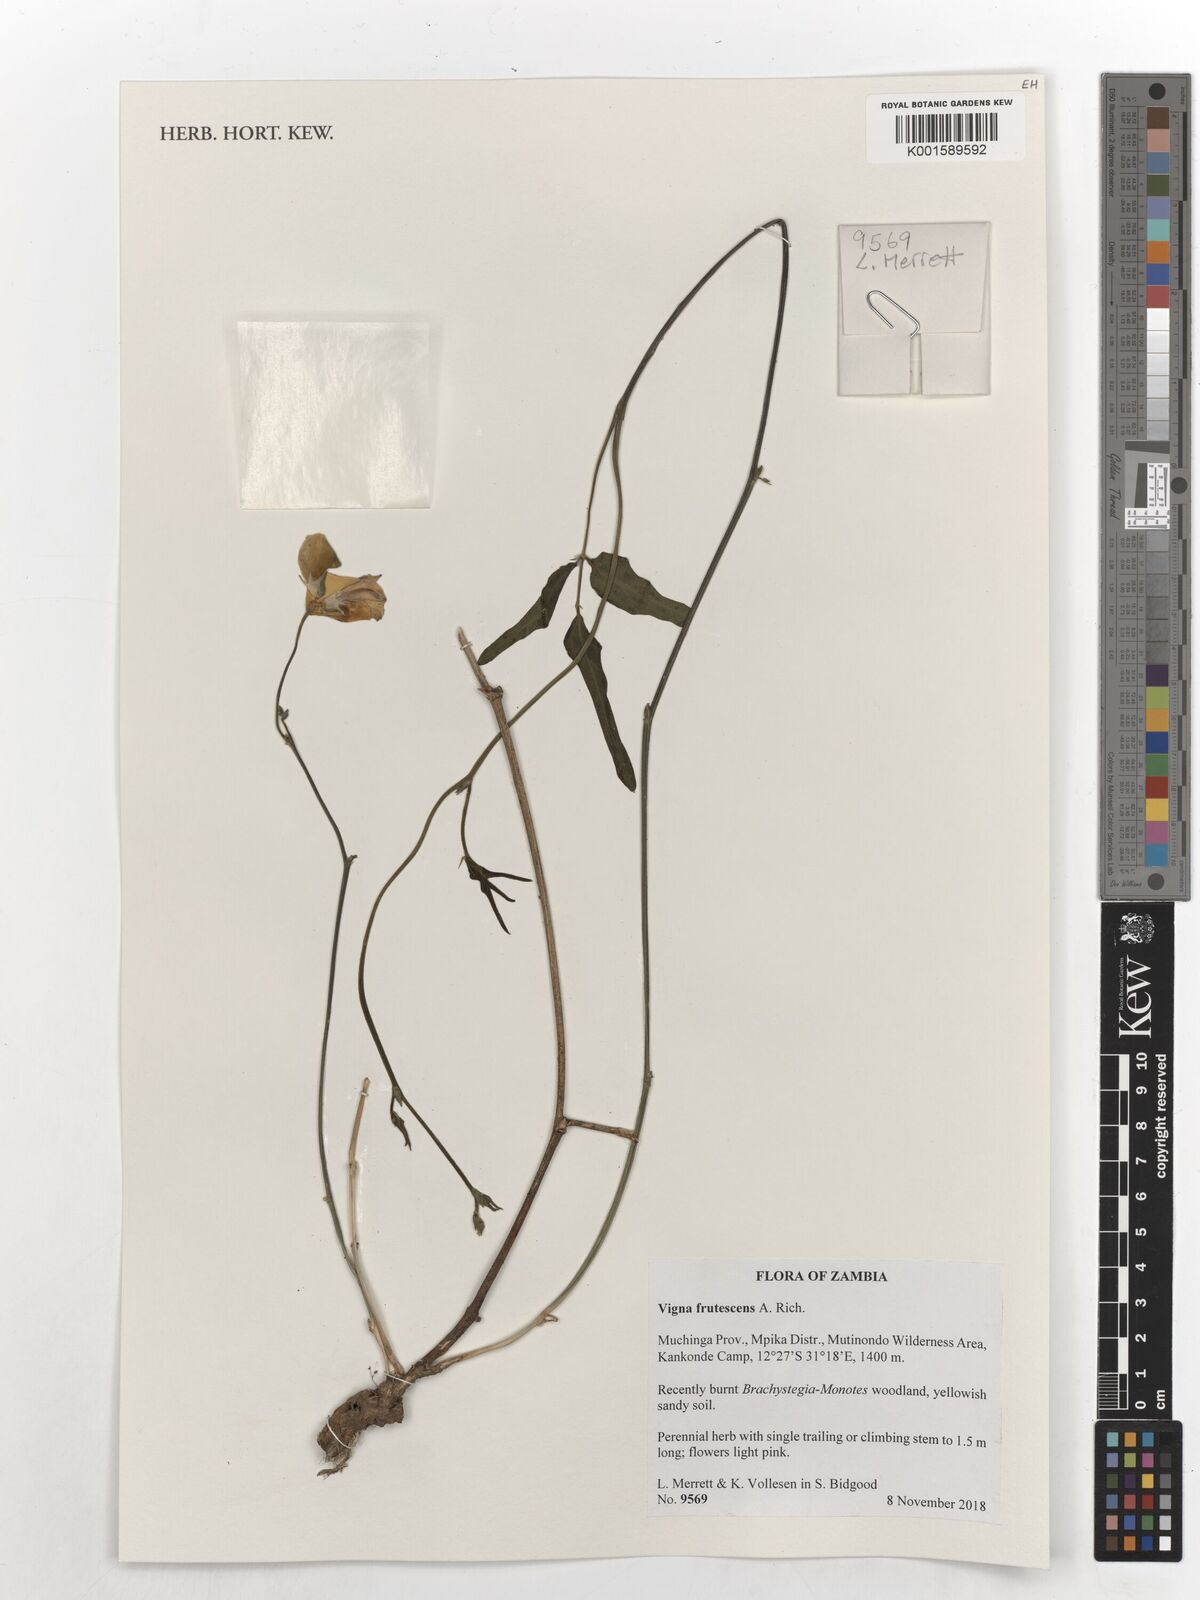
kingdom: Plantae
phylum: Tracheophyta
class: Magnoliopsida
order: Fabales
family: Fabaceae
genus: Vigna
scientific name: Vigna frutescens
